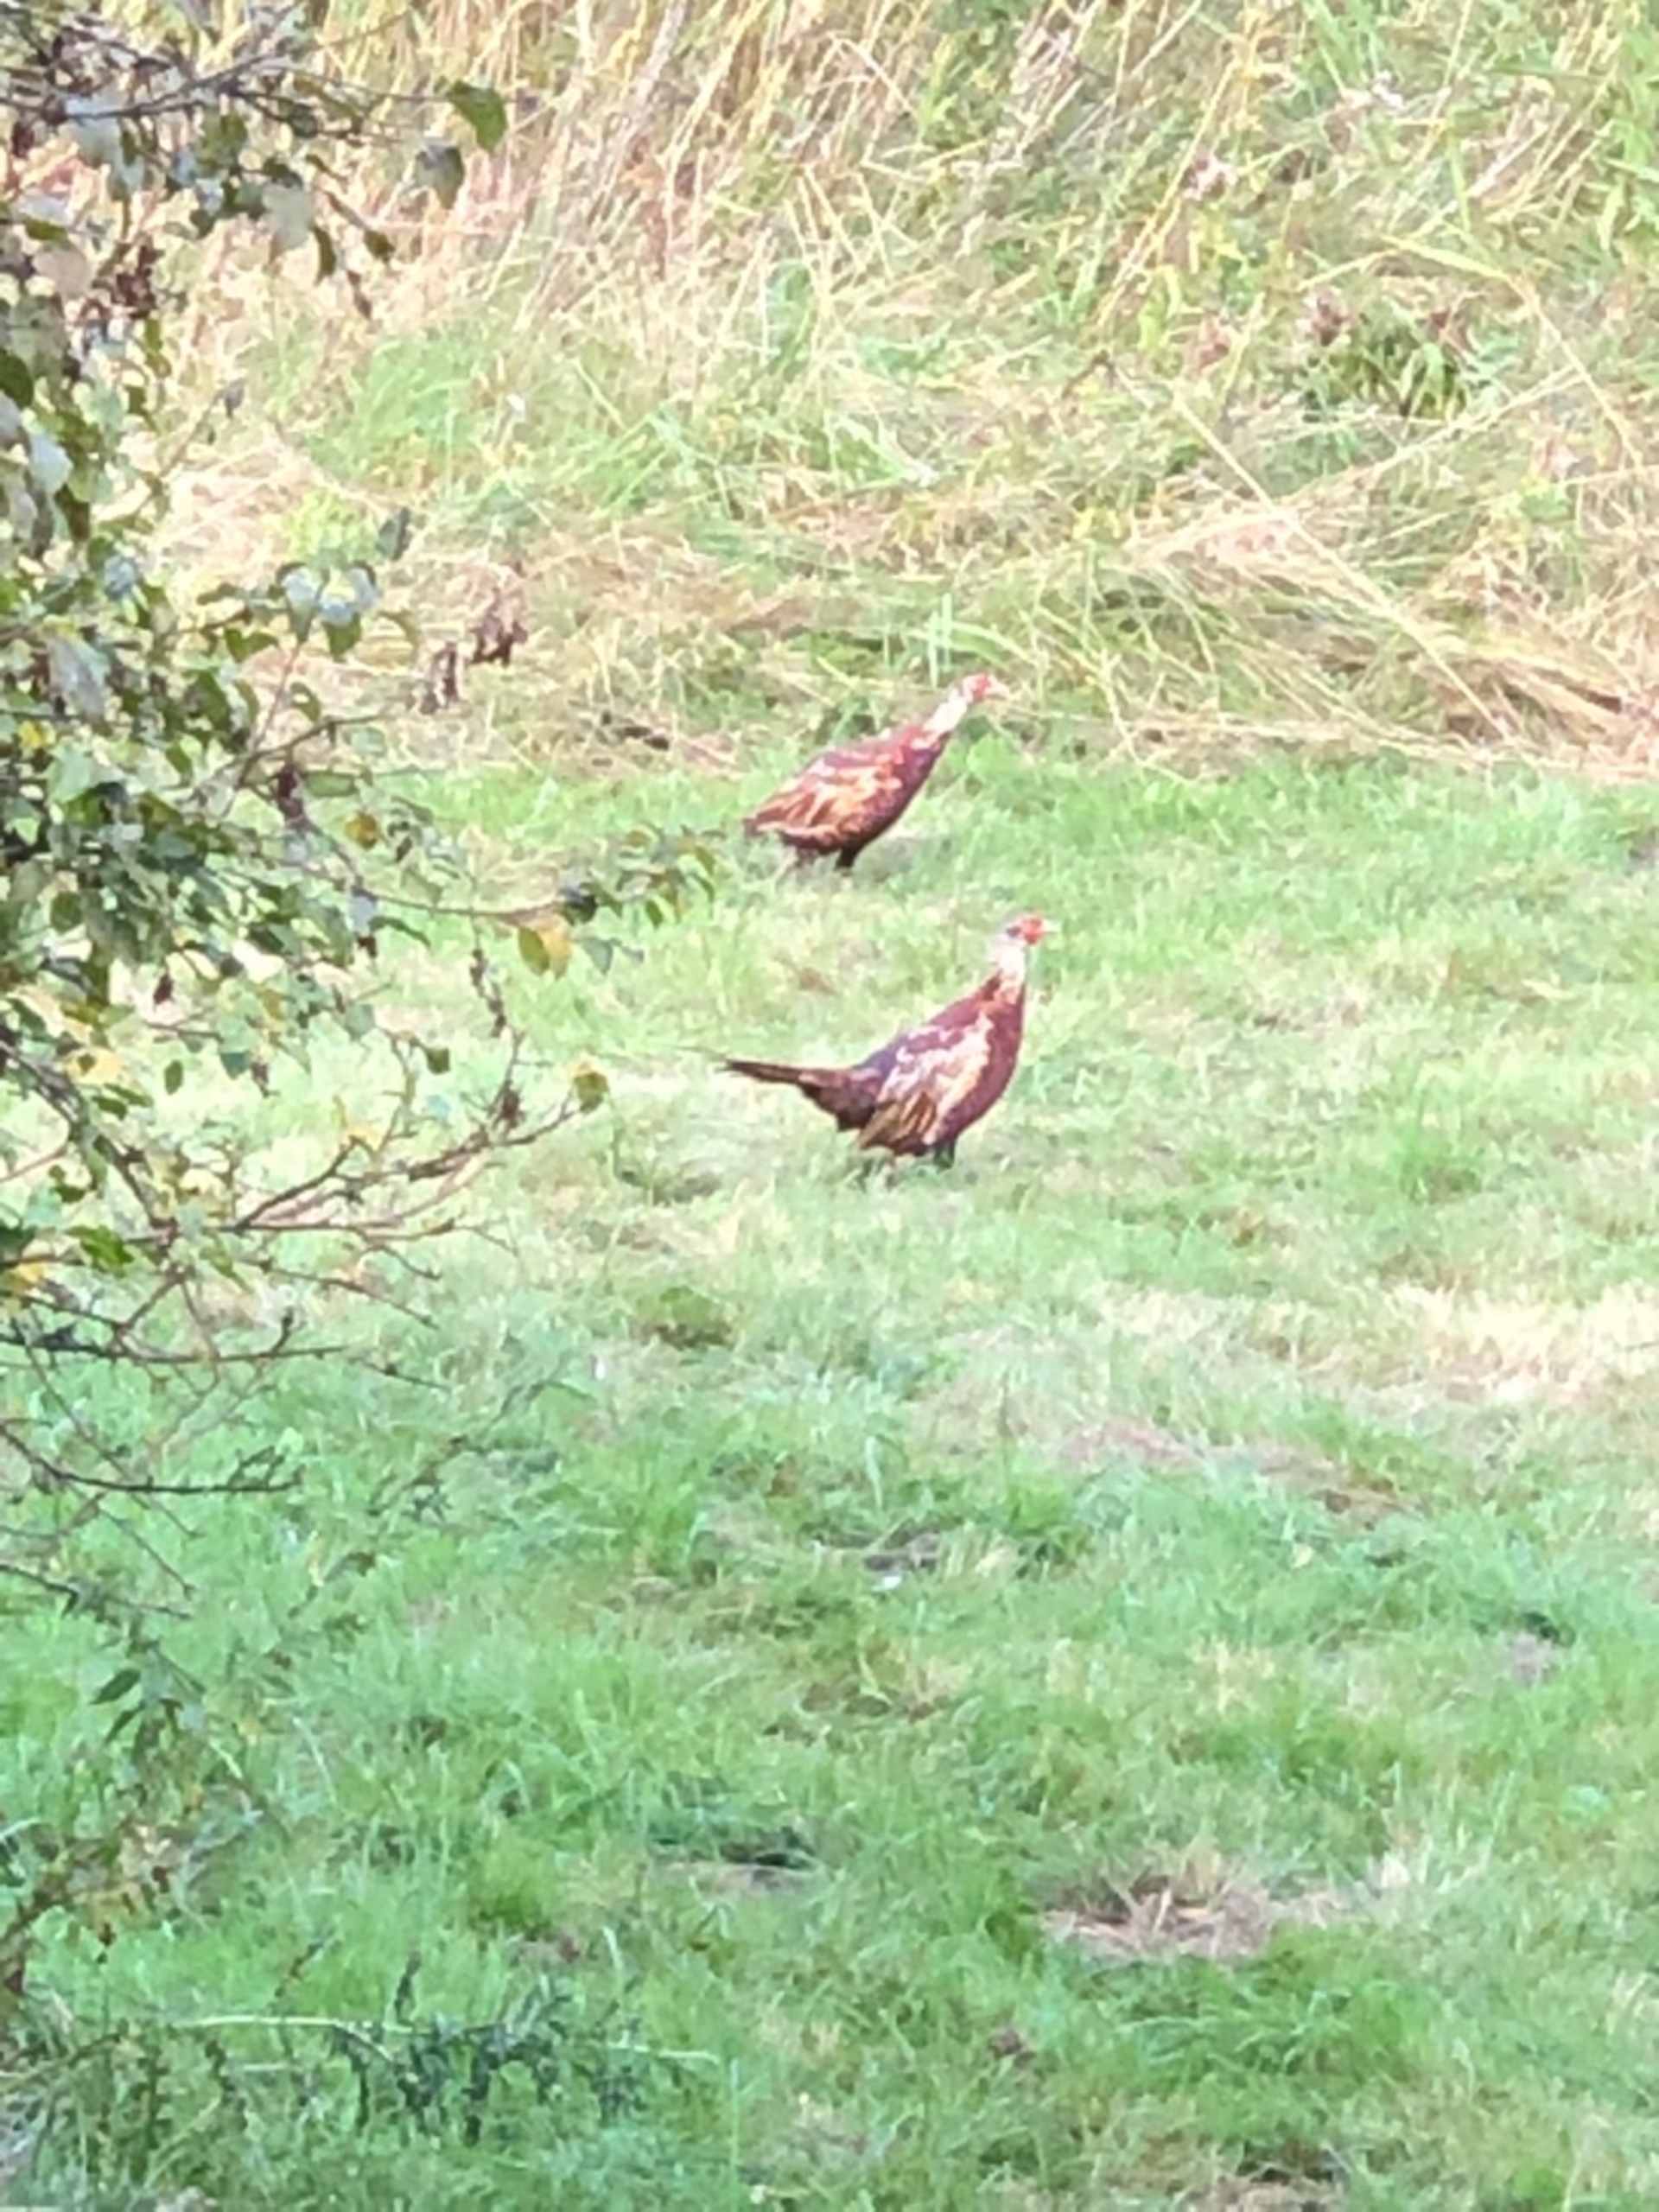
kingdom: Animalia
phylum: Chordata
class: Aves
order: Galliformes
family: Phasianidae
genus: Phasianus
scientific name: Phasianus colchicus
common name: Fasan
